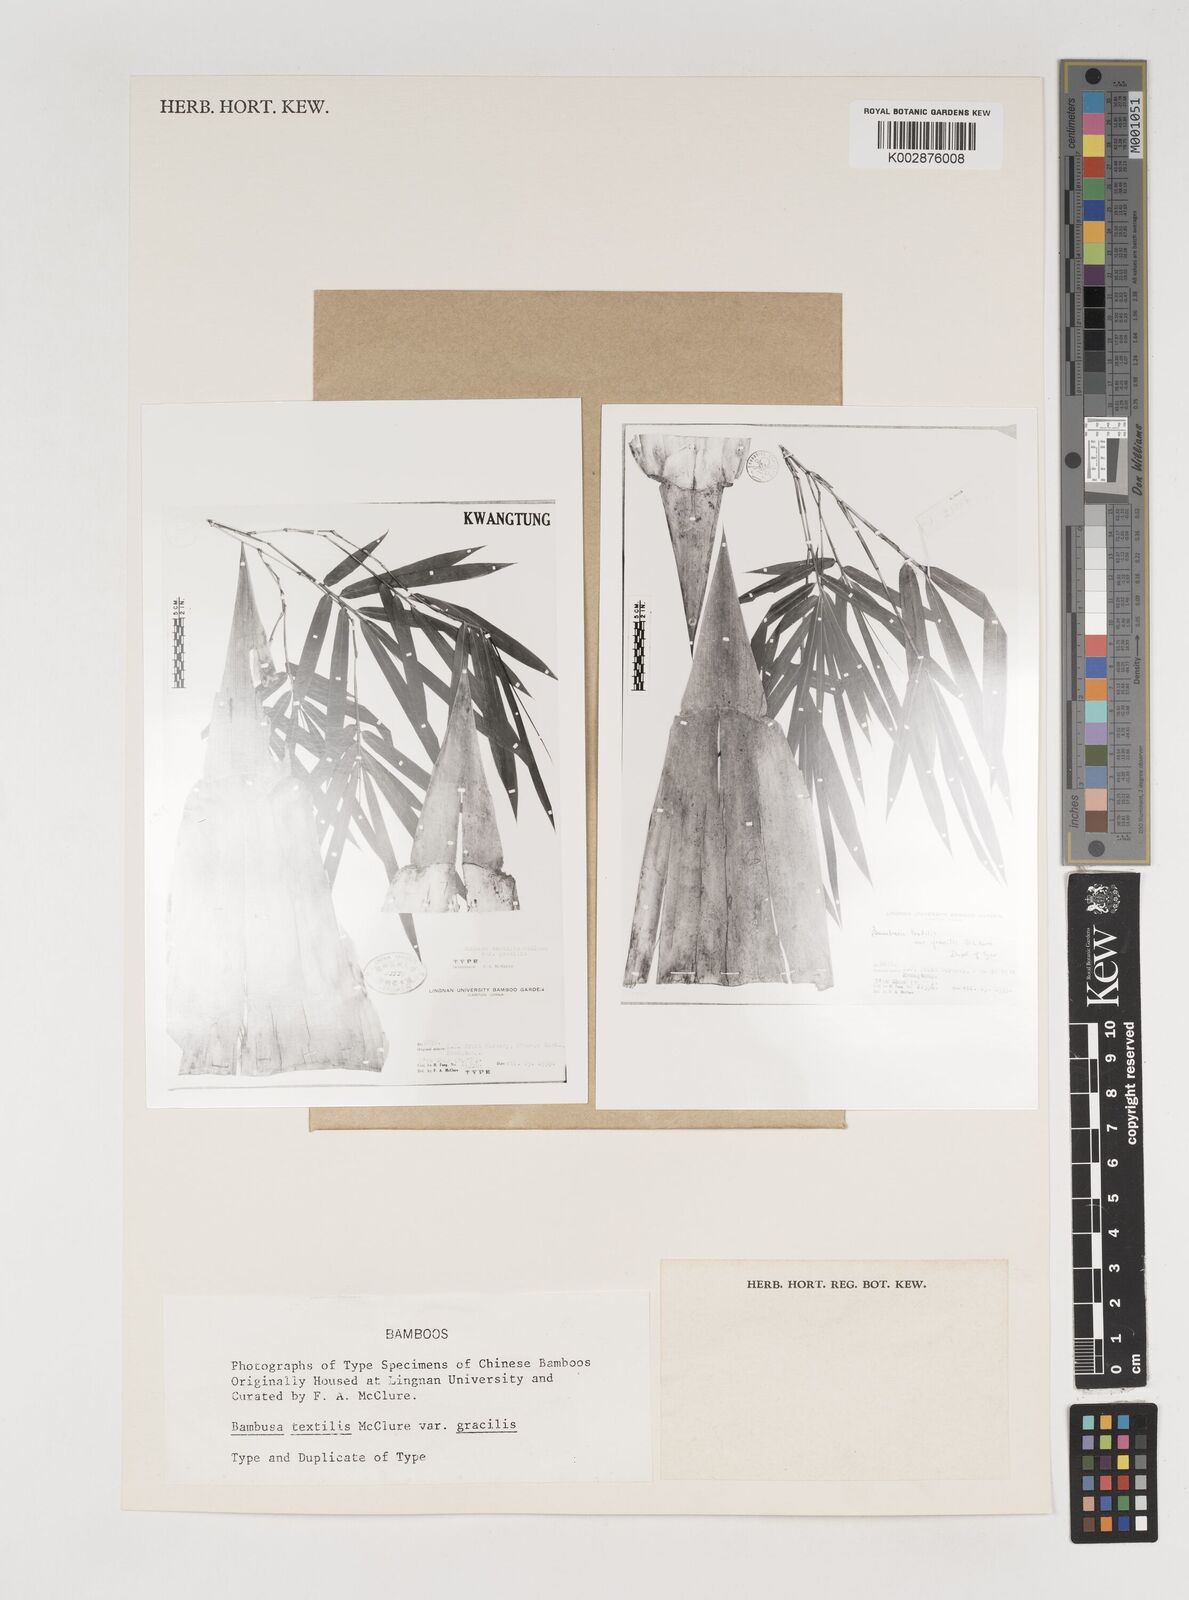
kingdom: Plantae
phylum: Tracheophyta
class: Liliopsida
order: Poales
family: Poaceae
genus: Bambusa
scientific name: Bambusa albolineata
